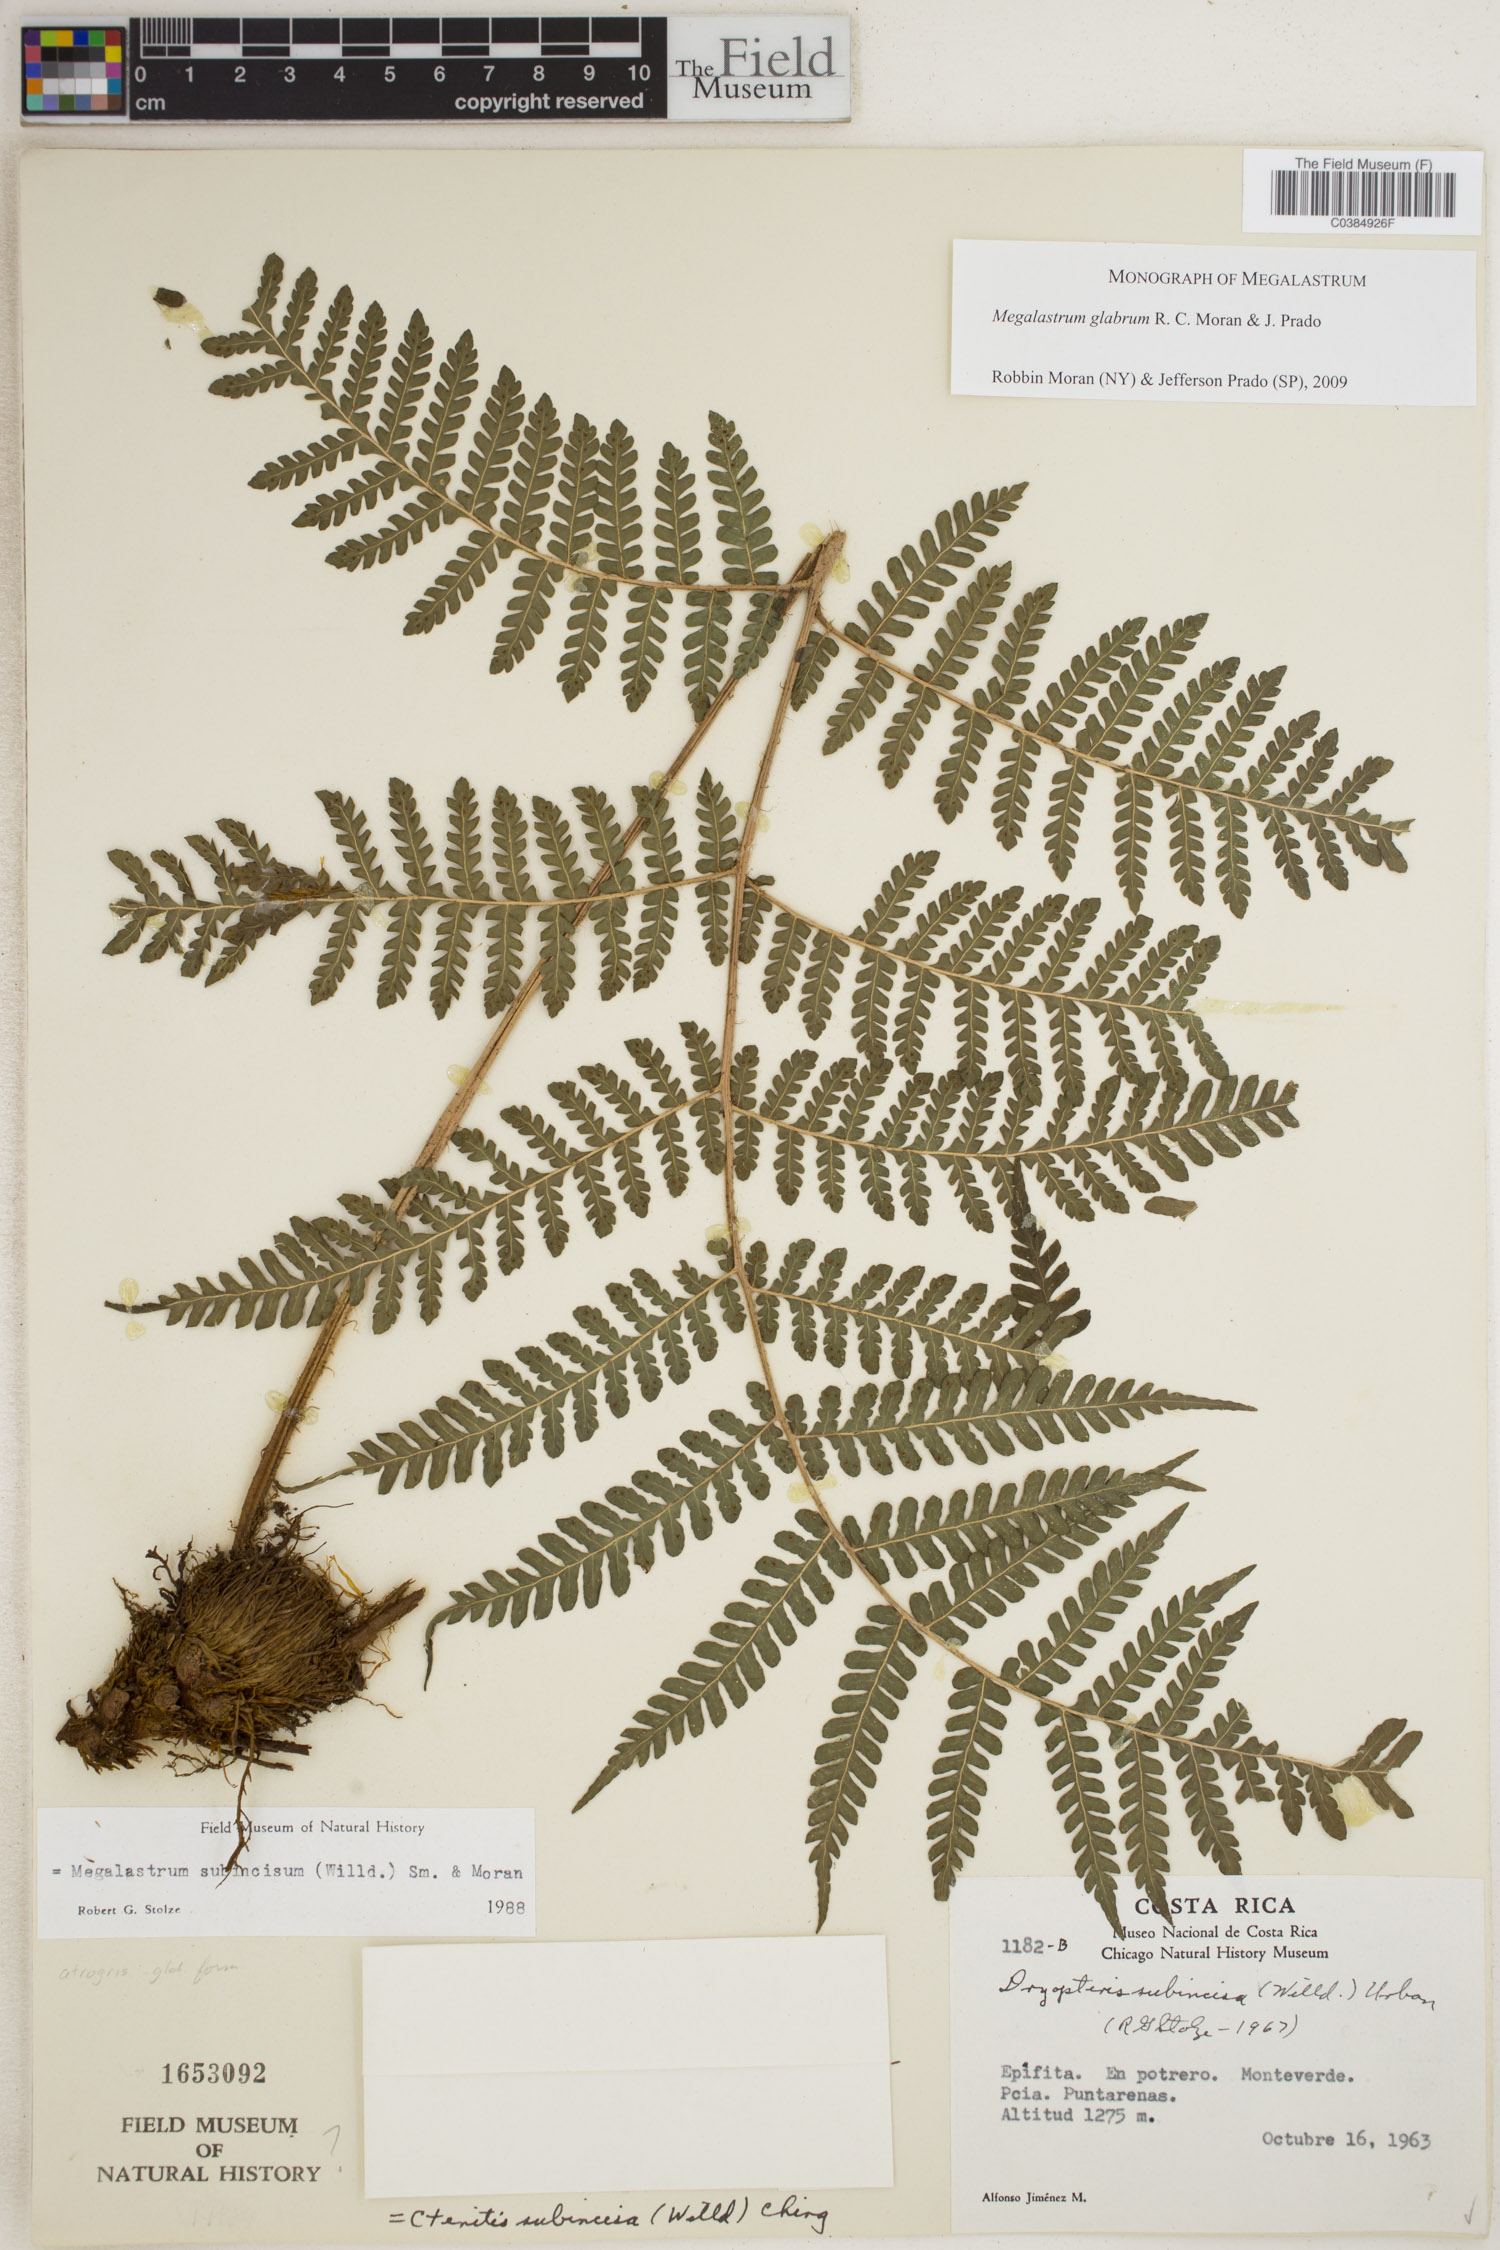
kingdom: Plantae
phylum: Tracheophyta
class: Polypodiopsida
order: Polypodiales
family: Dryopteridaceae
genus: Megalastrum
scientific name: Megalastrum glabrum
